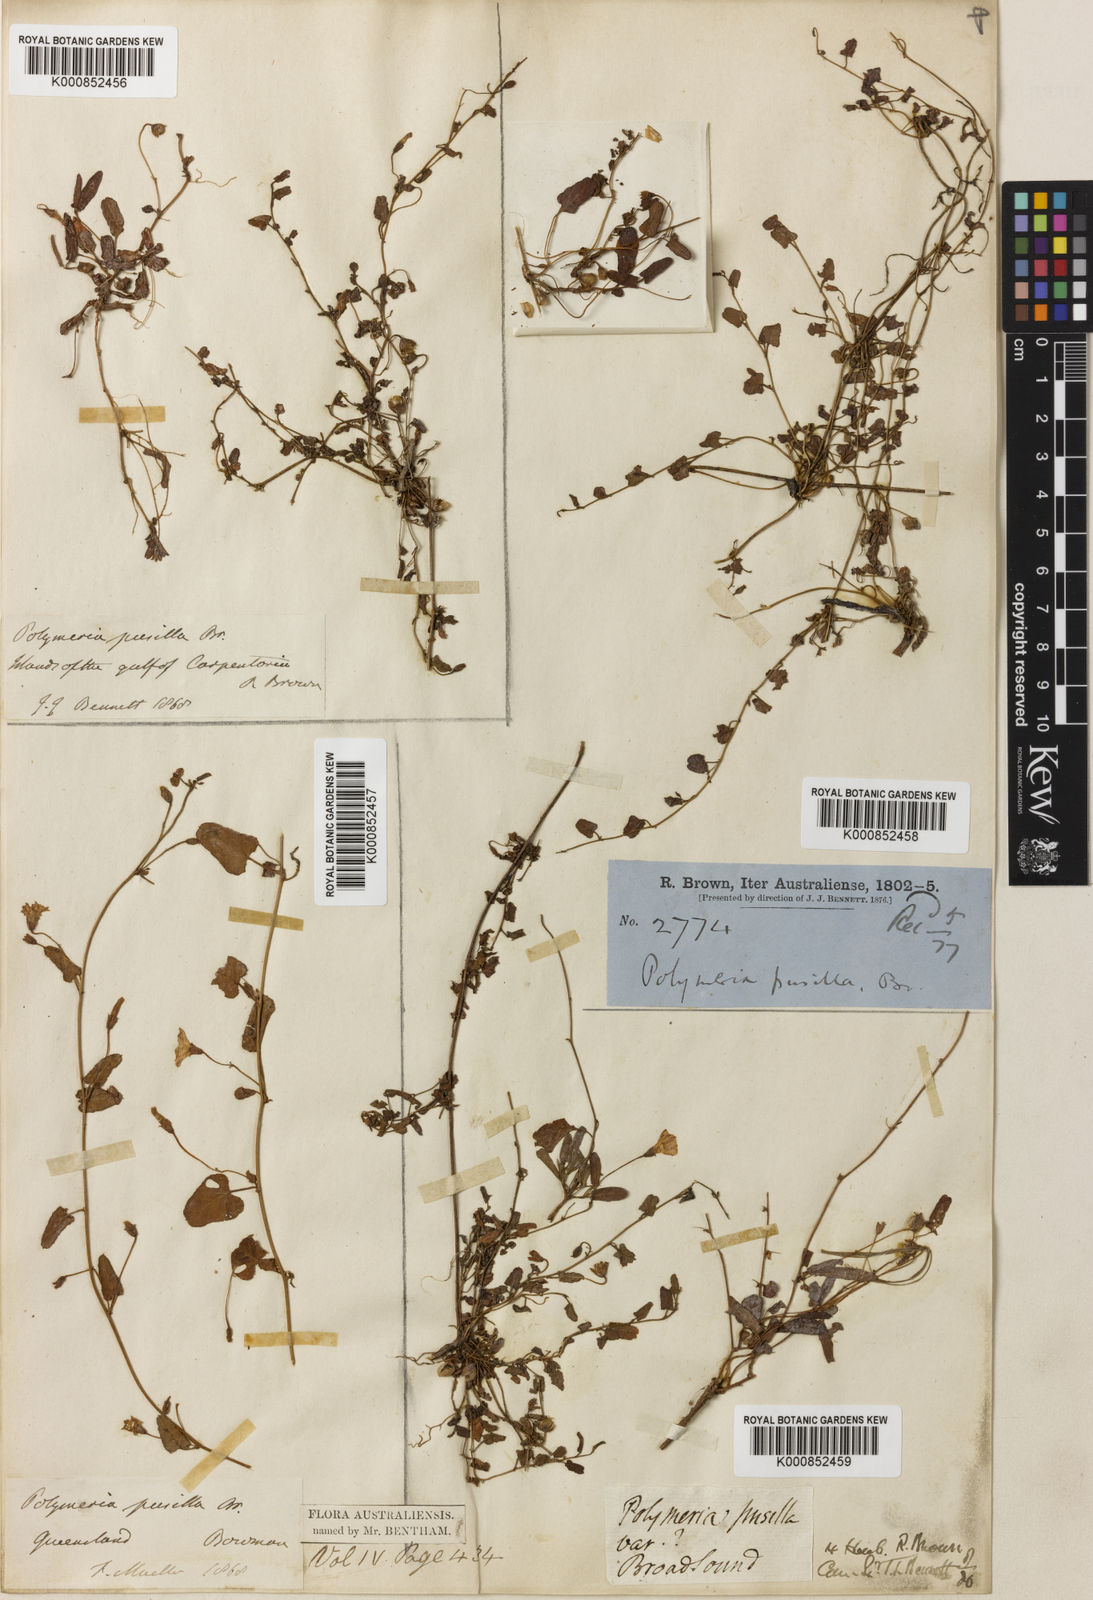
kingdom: Plantae
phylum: Tracheophyta
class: Magnoliopsida
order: Solanales
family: Convolvulaceae
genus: Polymeria
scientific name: Polymeria pusilla
